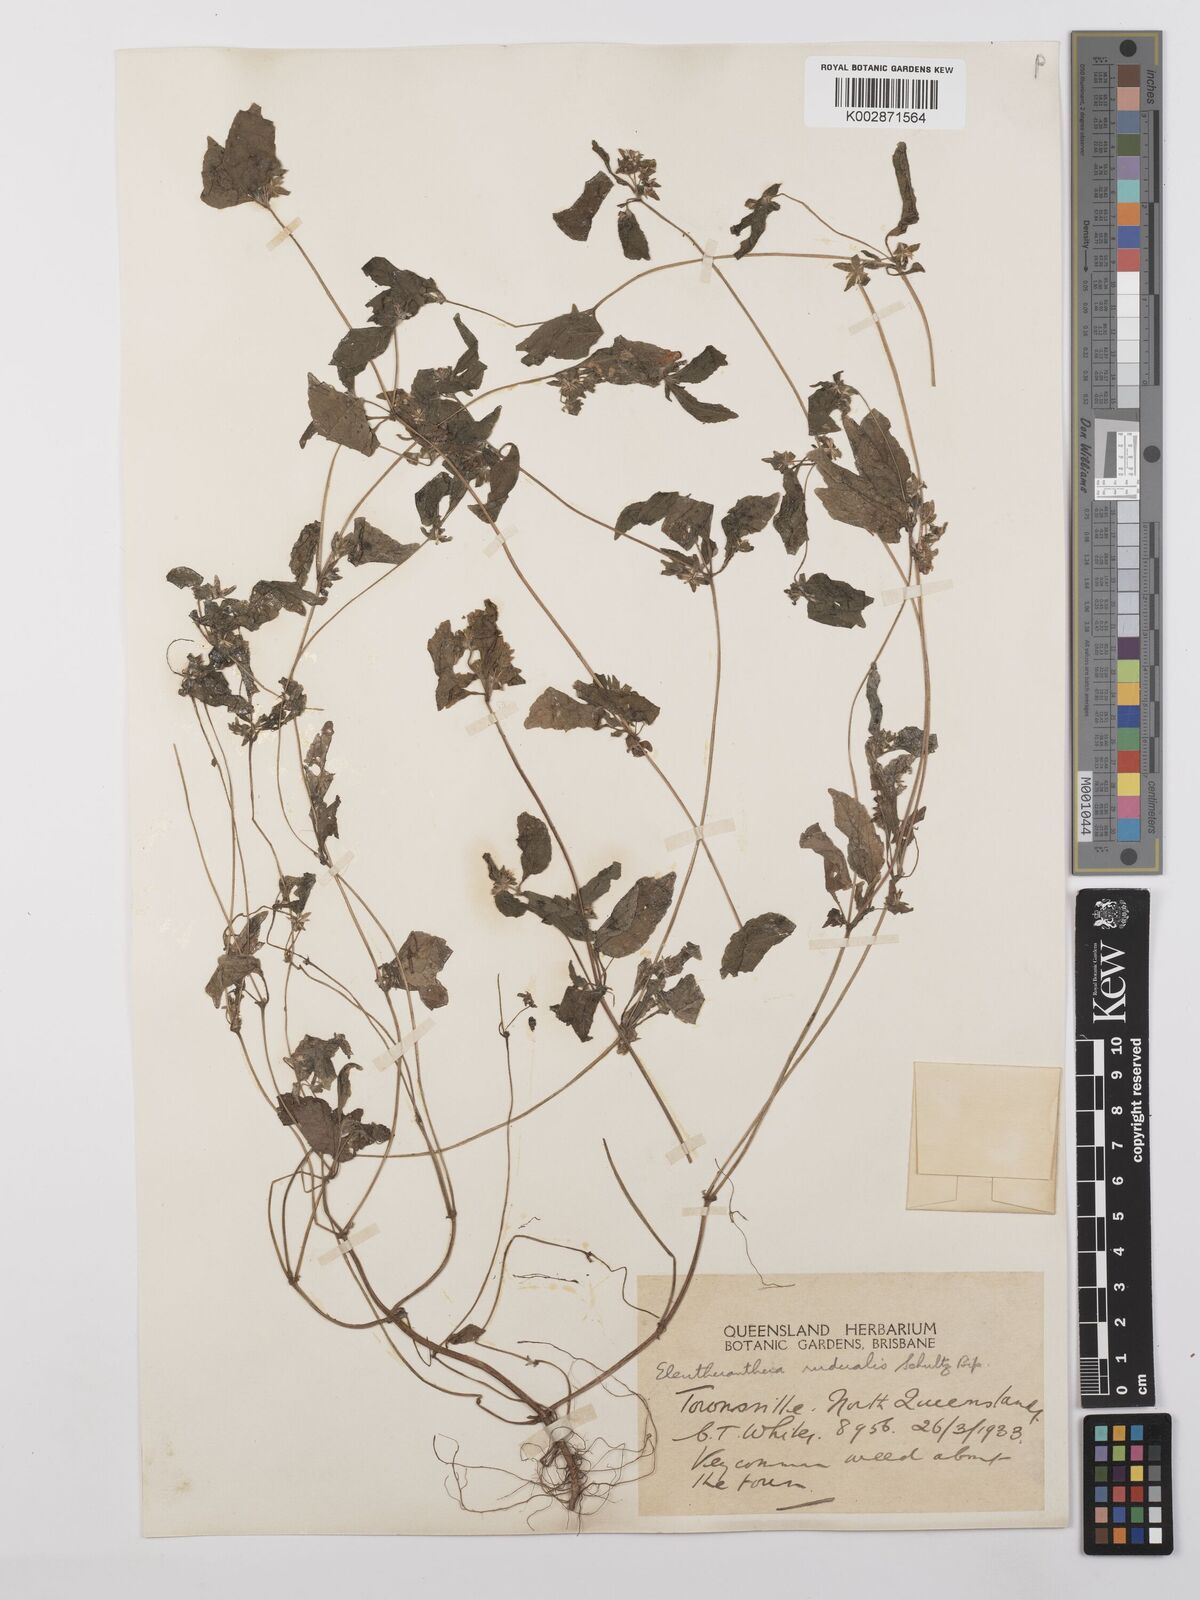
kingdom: Plantae
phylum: Tracheophyta
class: Magnoliopsida
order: Asterales
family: Asteraceae
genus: Eleutheranthera
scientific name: Eleutheranthera ruderalis
